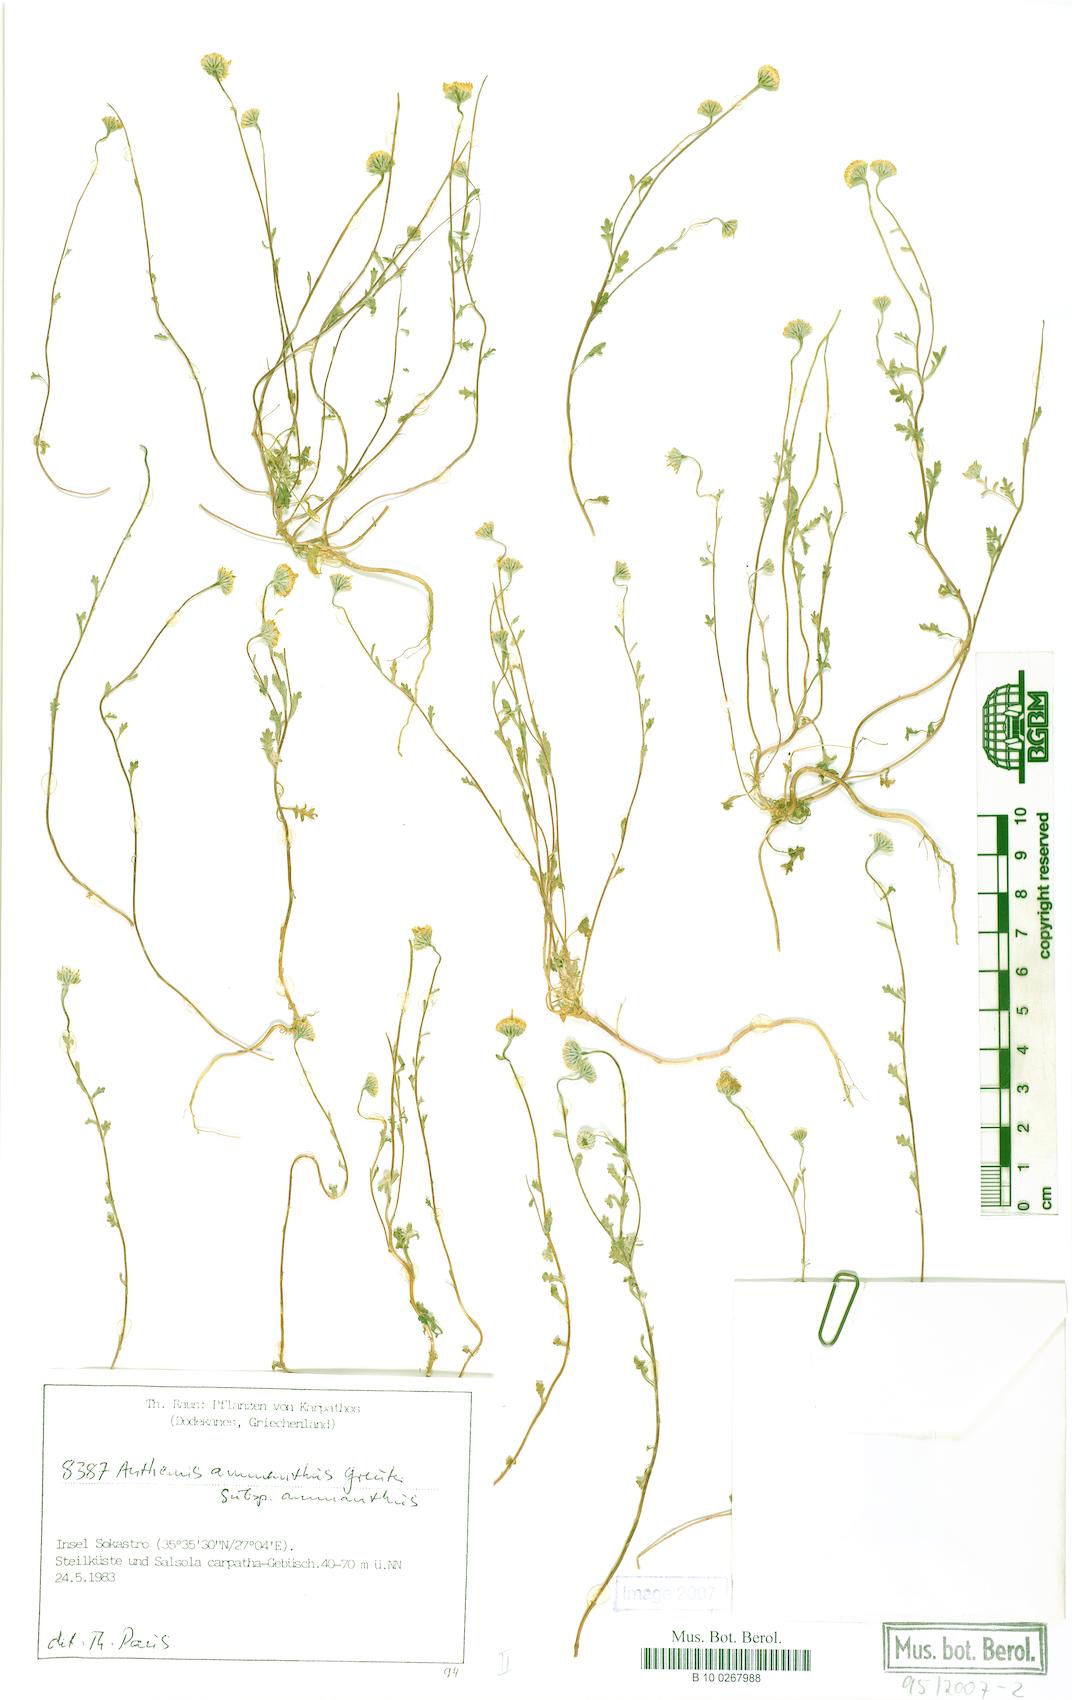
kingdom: Plantae
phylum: Tracheophyta
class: Magnoliopsida
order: Asterales
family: Asteraceae
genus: Anthemis
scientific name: Anthemis ammanthus
